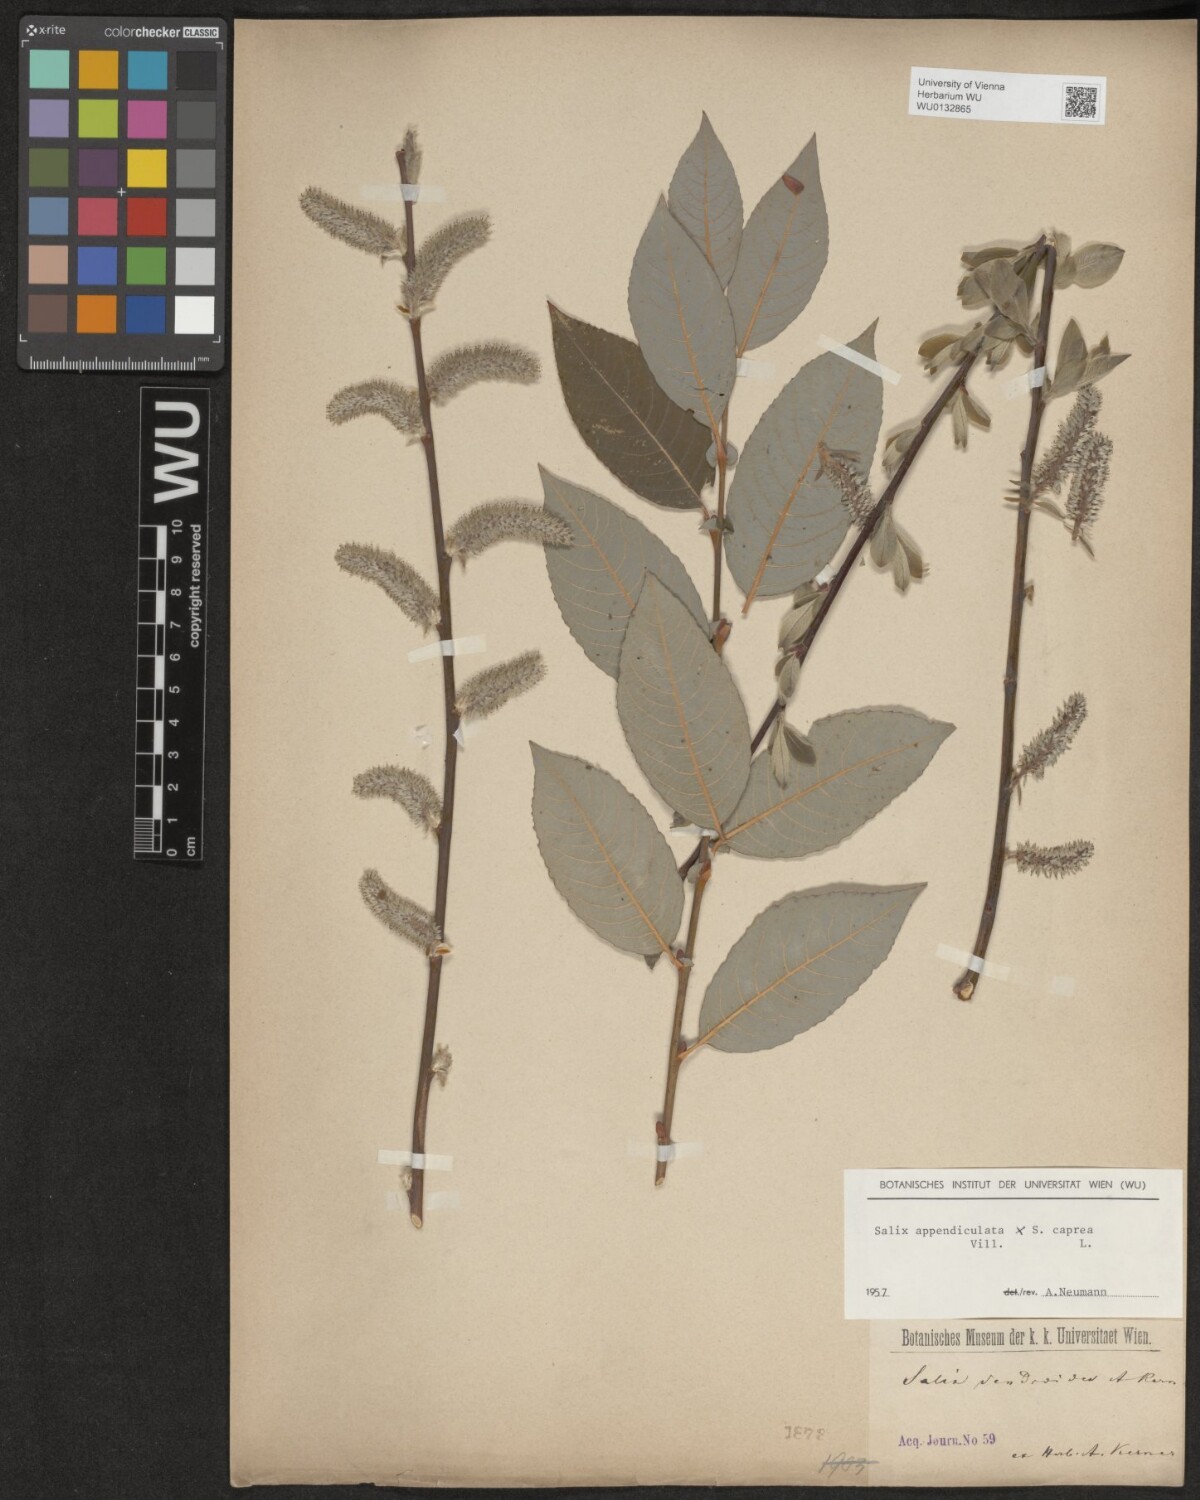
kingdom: Plantae
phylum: Tracheophyta
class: Magnoliopsida
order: Malpighiales
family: Salicaceae
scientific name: Salicaceae
